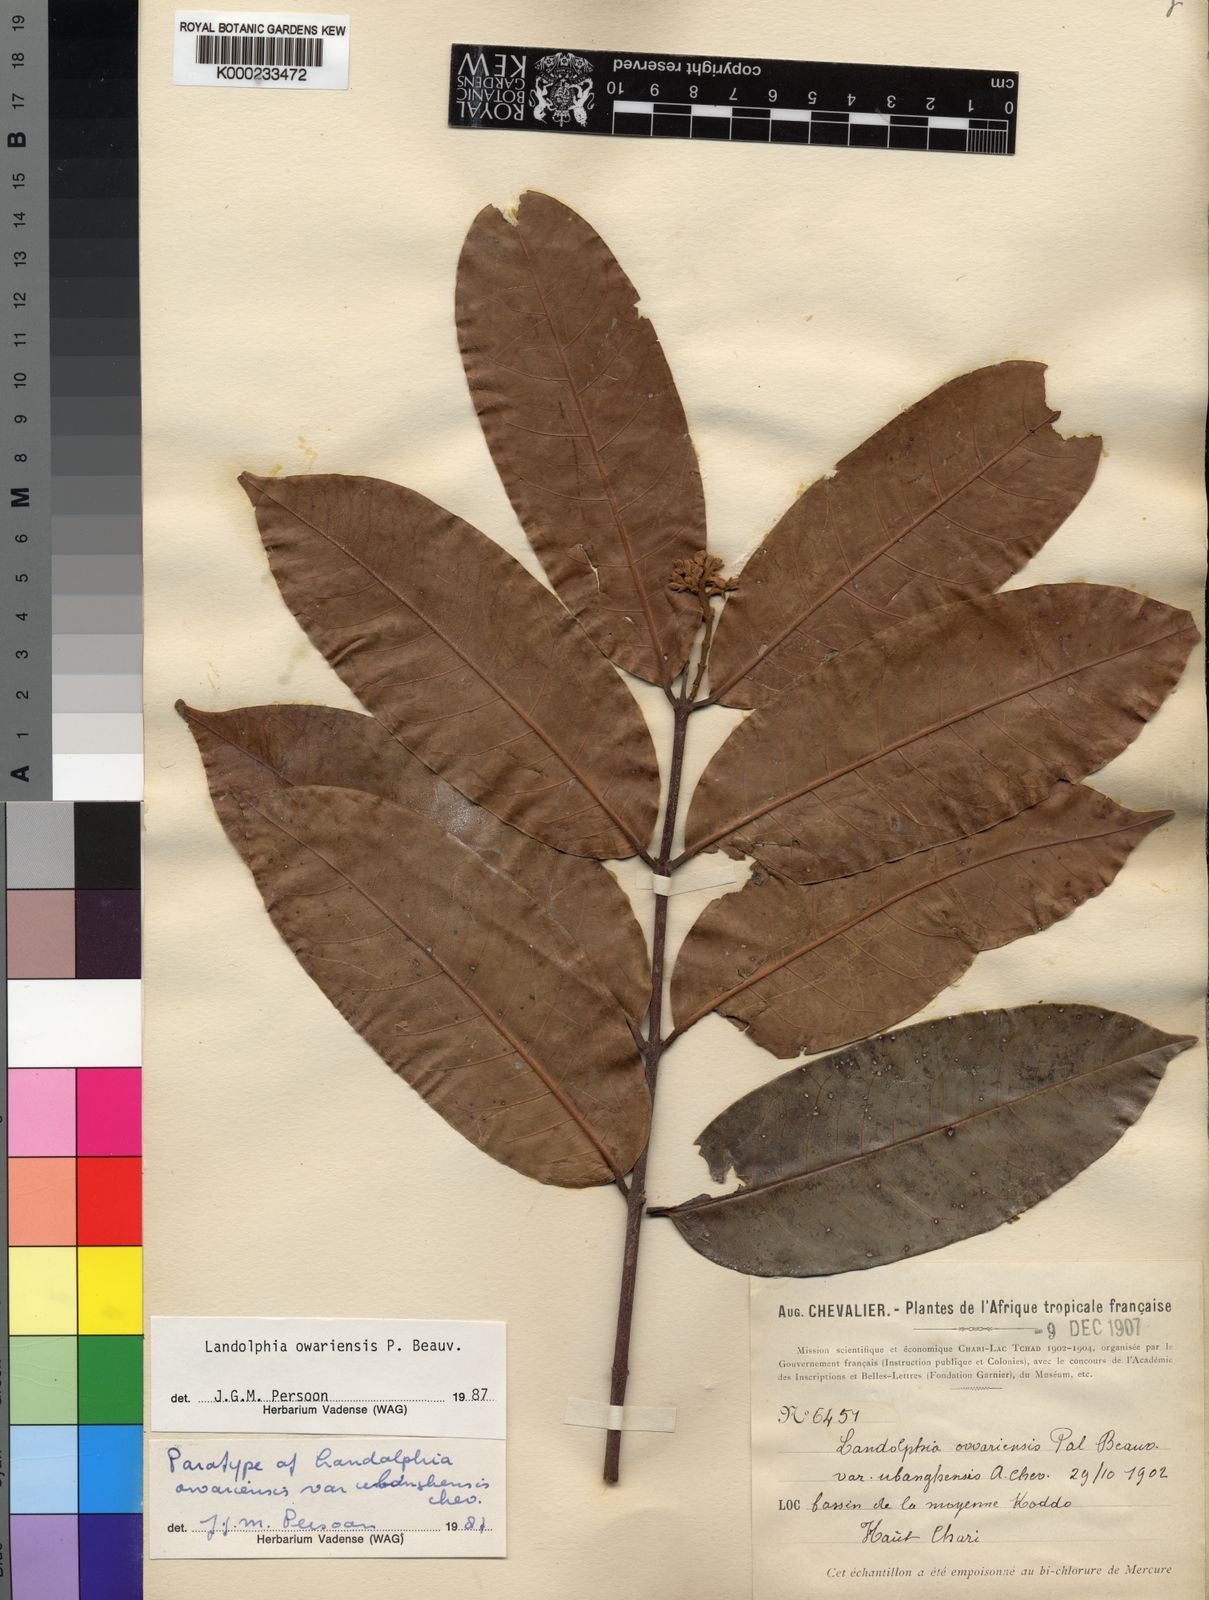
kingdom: Plantae
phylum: Tracheophyta
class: Magnoliopsida
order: Gentianales
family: Apocynaceae
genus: Landolphia
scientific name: Landolphia owariensis
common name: White-ball-rubber
